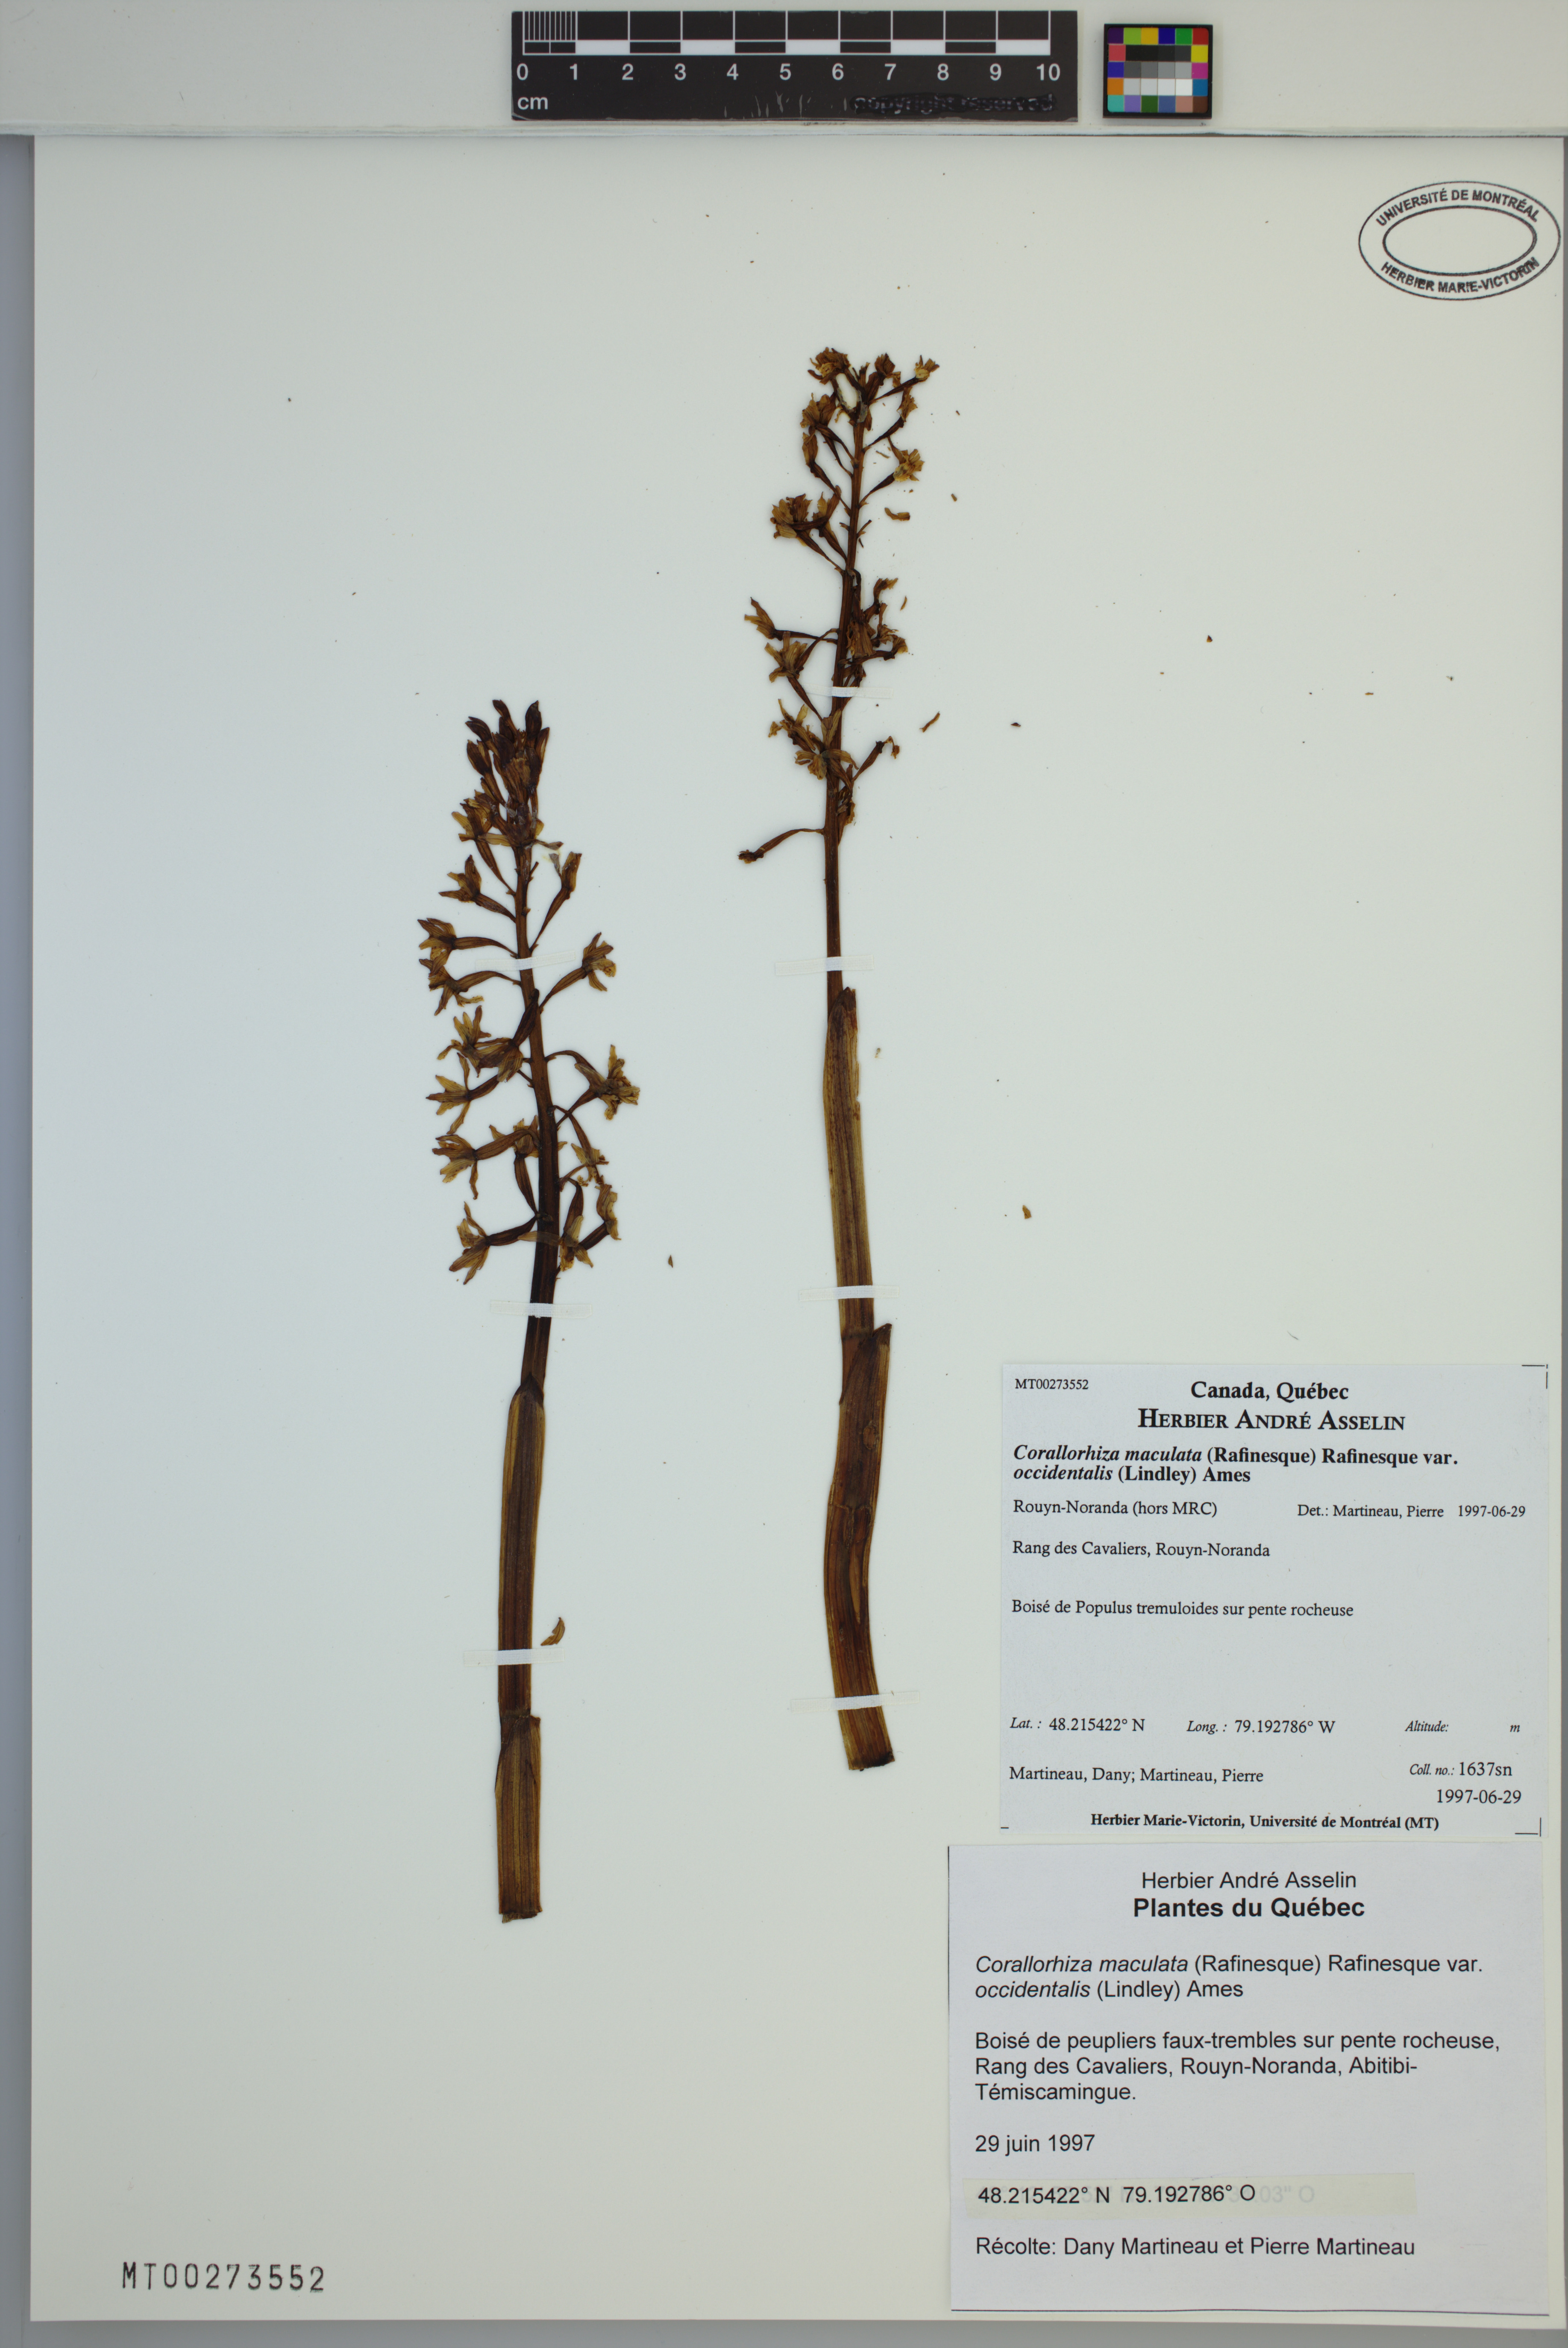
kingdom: Plantae
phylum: Tracheophyta
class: Liliopsida
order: Asparagales
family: Orchidaceae
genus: Corallorhiza
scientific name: Corallorhiza maculata
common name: Spotted coralroot
